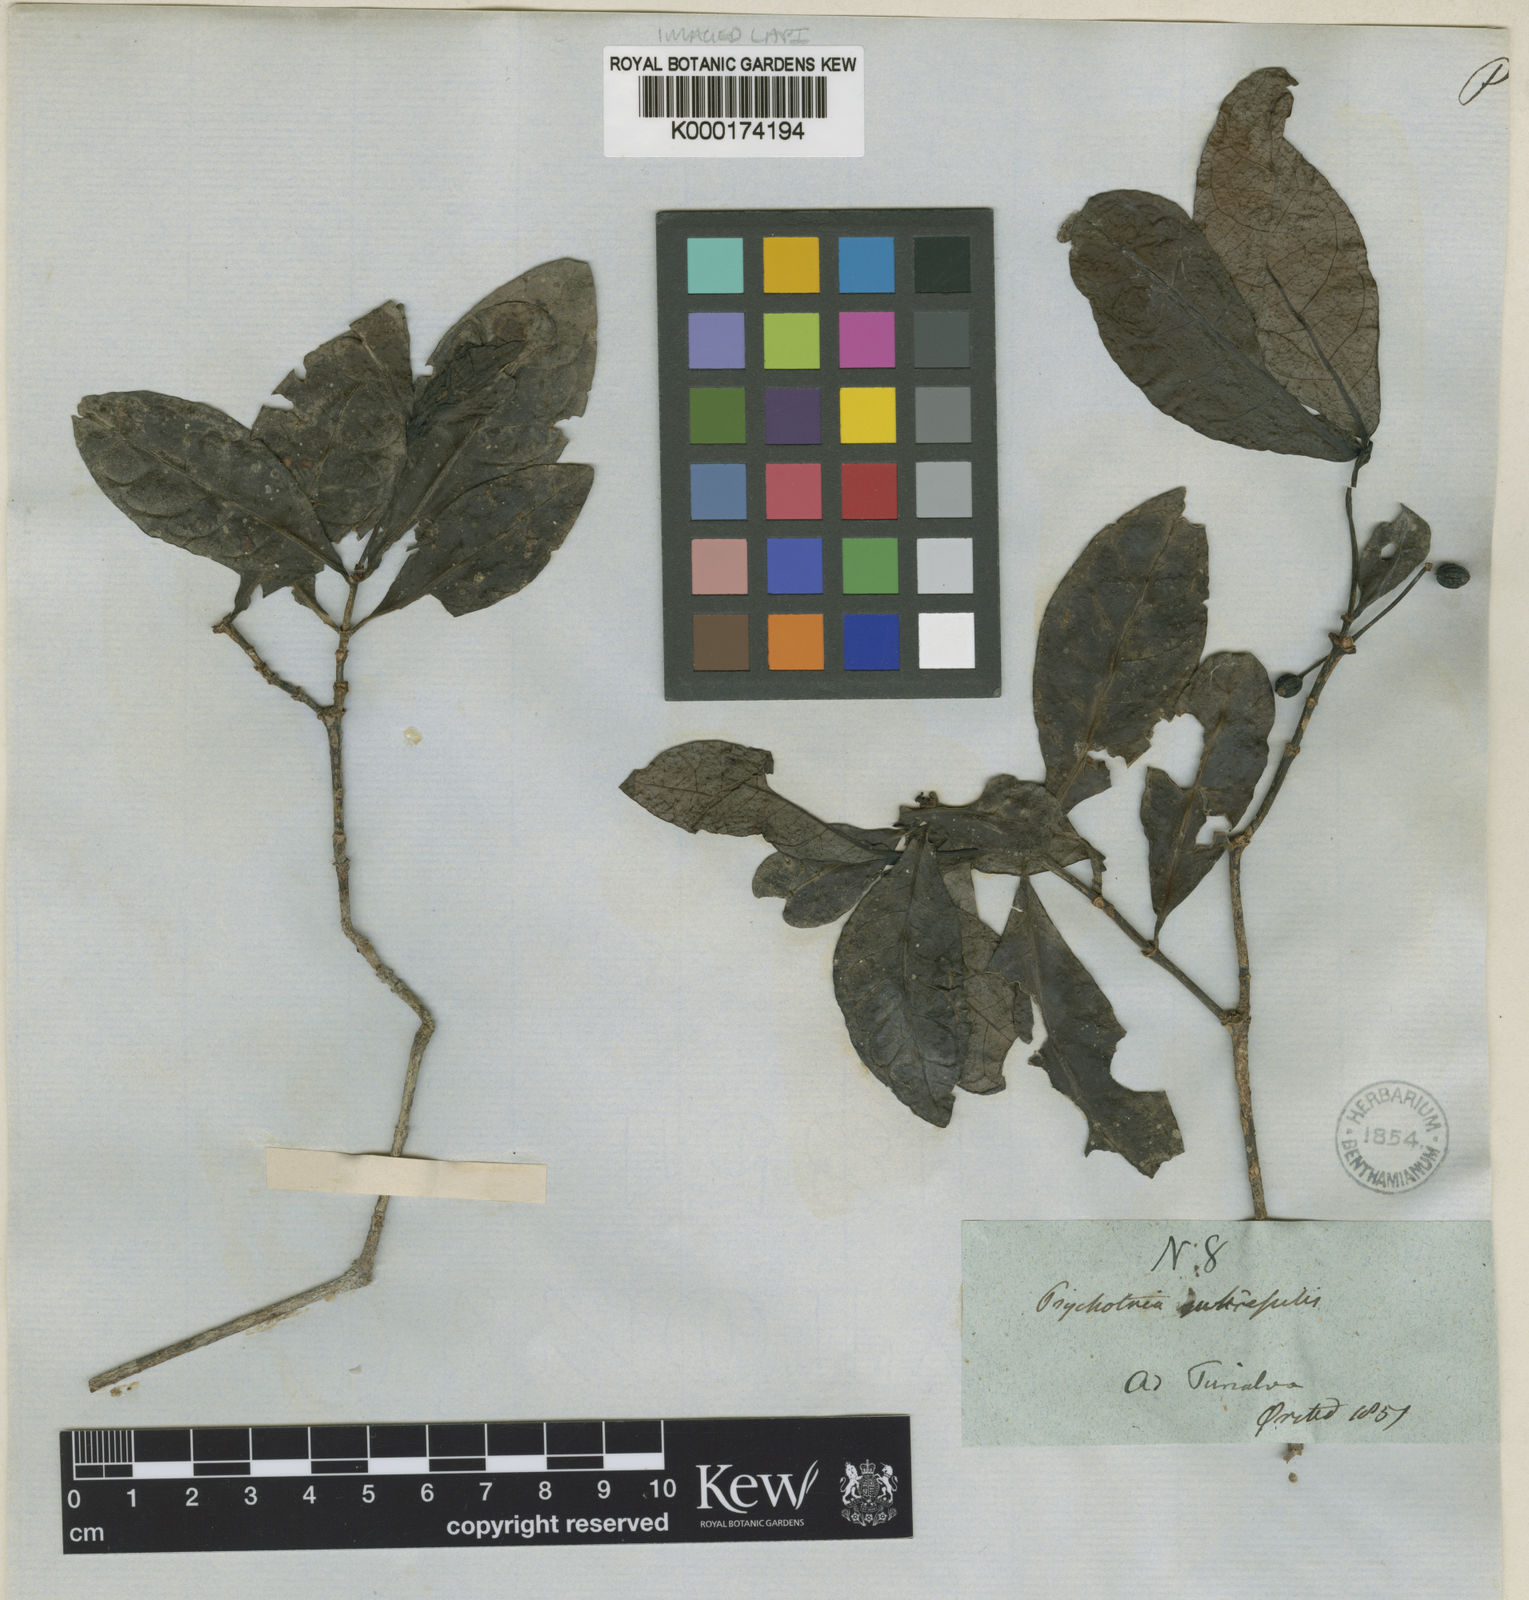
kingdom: Plantae
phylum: Tracheophyta
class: Magnoliopsida
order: Gentianales
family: Rubiaceae
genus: Psychotria
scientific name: Psychotria
